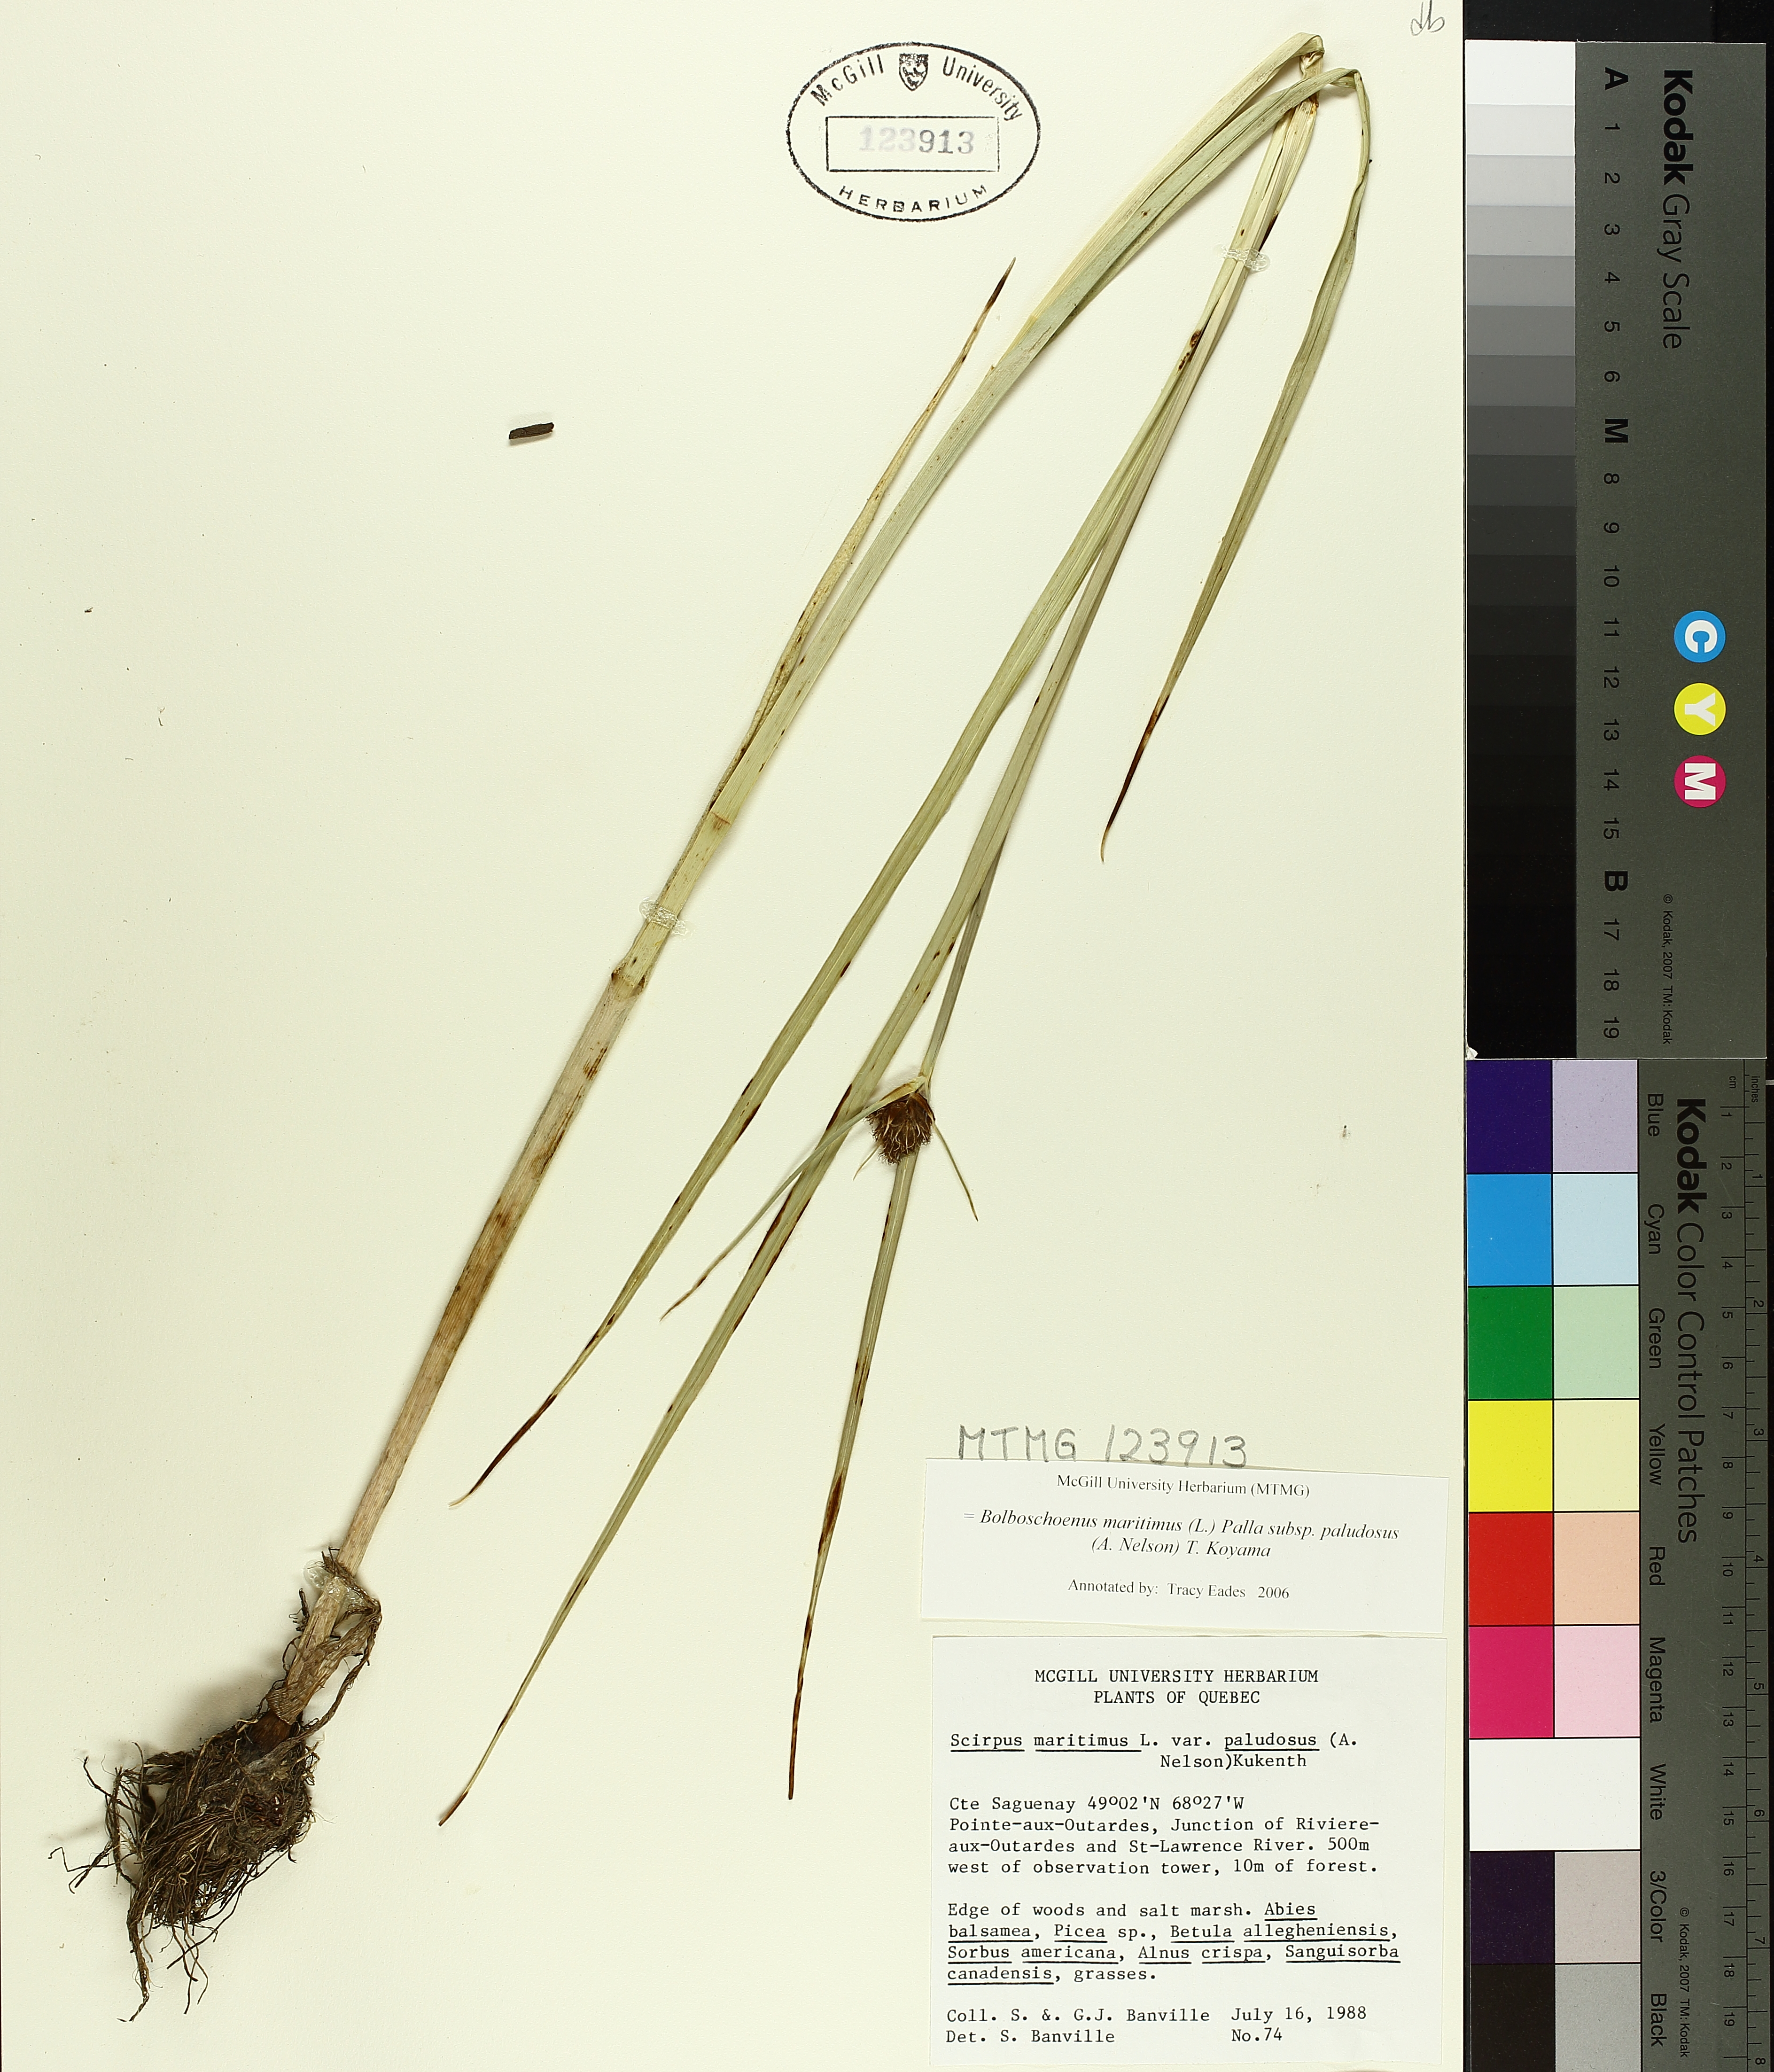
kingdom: Plantae
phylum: Tracheophyta
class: Liliopsida
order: Poales
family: Cyperaceae
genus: Bolboschoenus
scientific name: Bolboschoenus maritimus
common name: Sea club-rush
